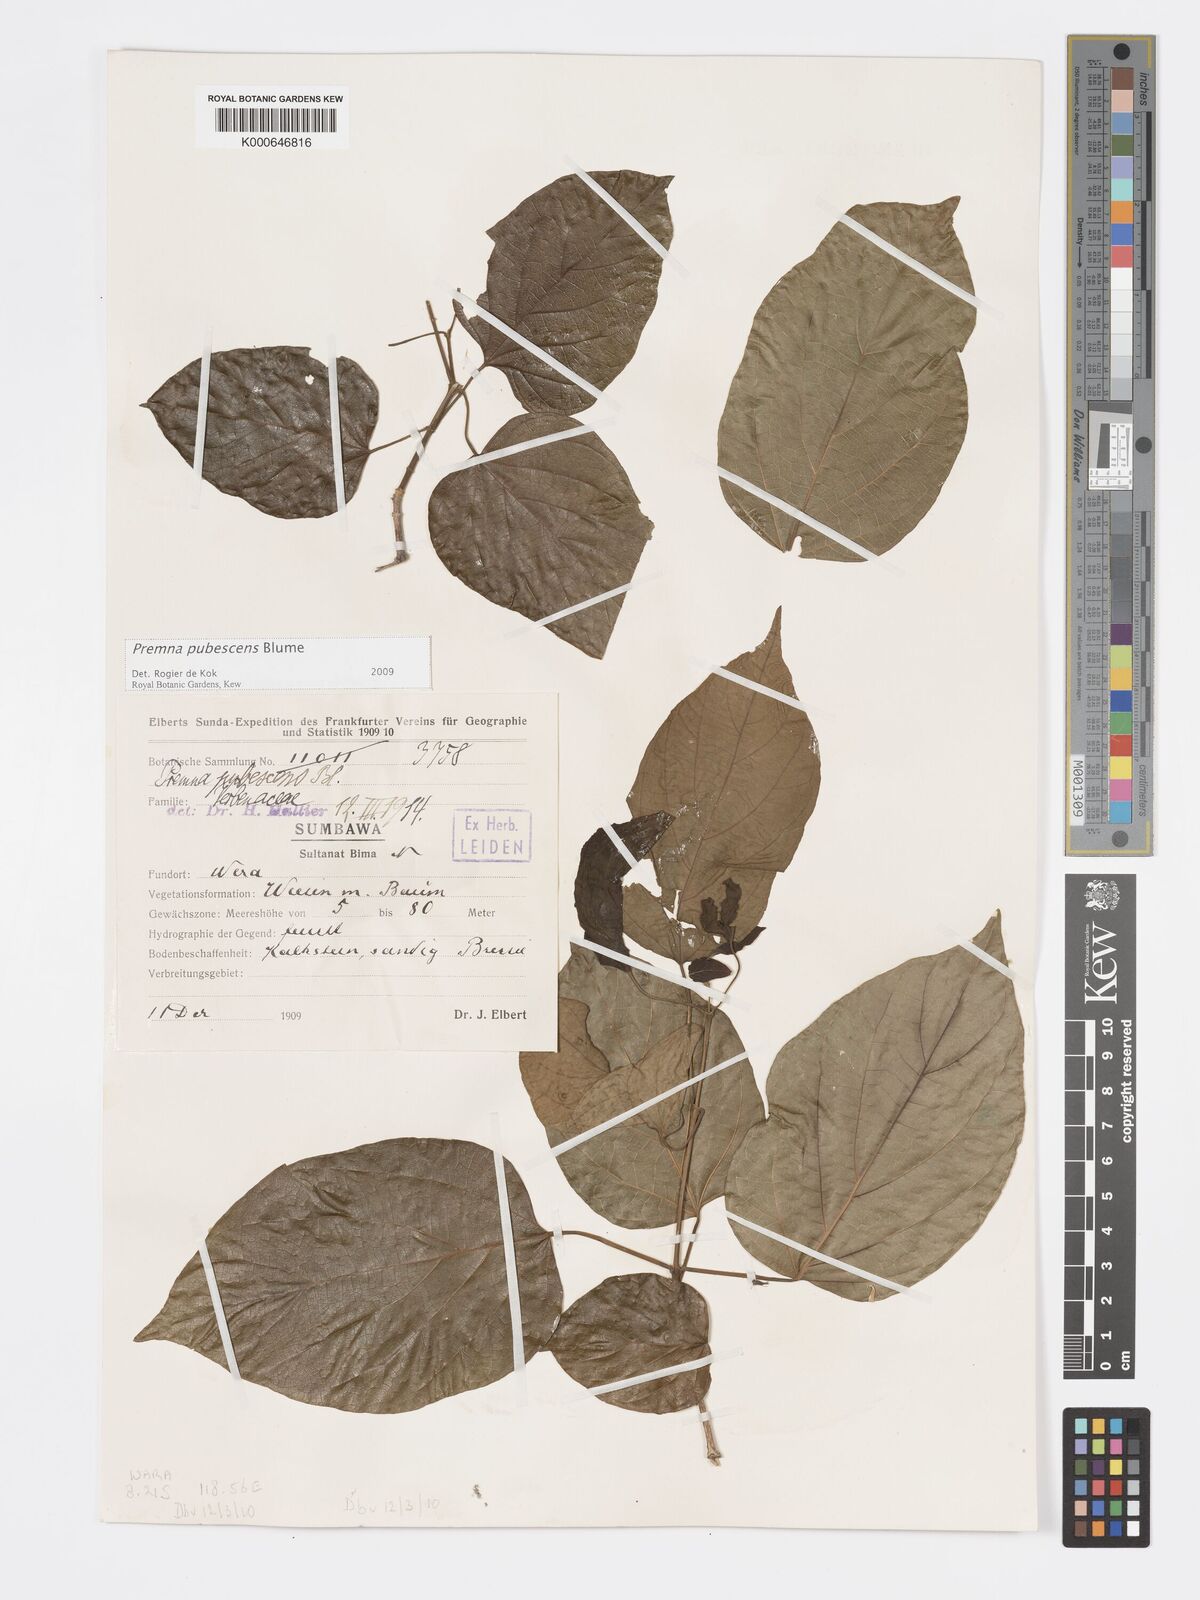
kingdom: Plantae
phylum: Tracheophyta
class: Magnoliopsida
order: Lamiales
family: Lamiaceae
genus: Premna
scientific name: Premna
